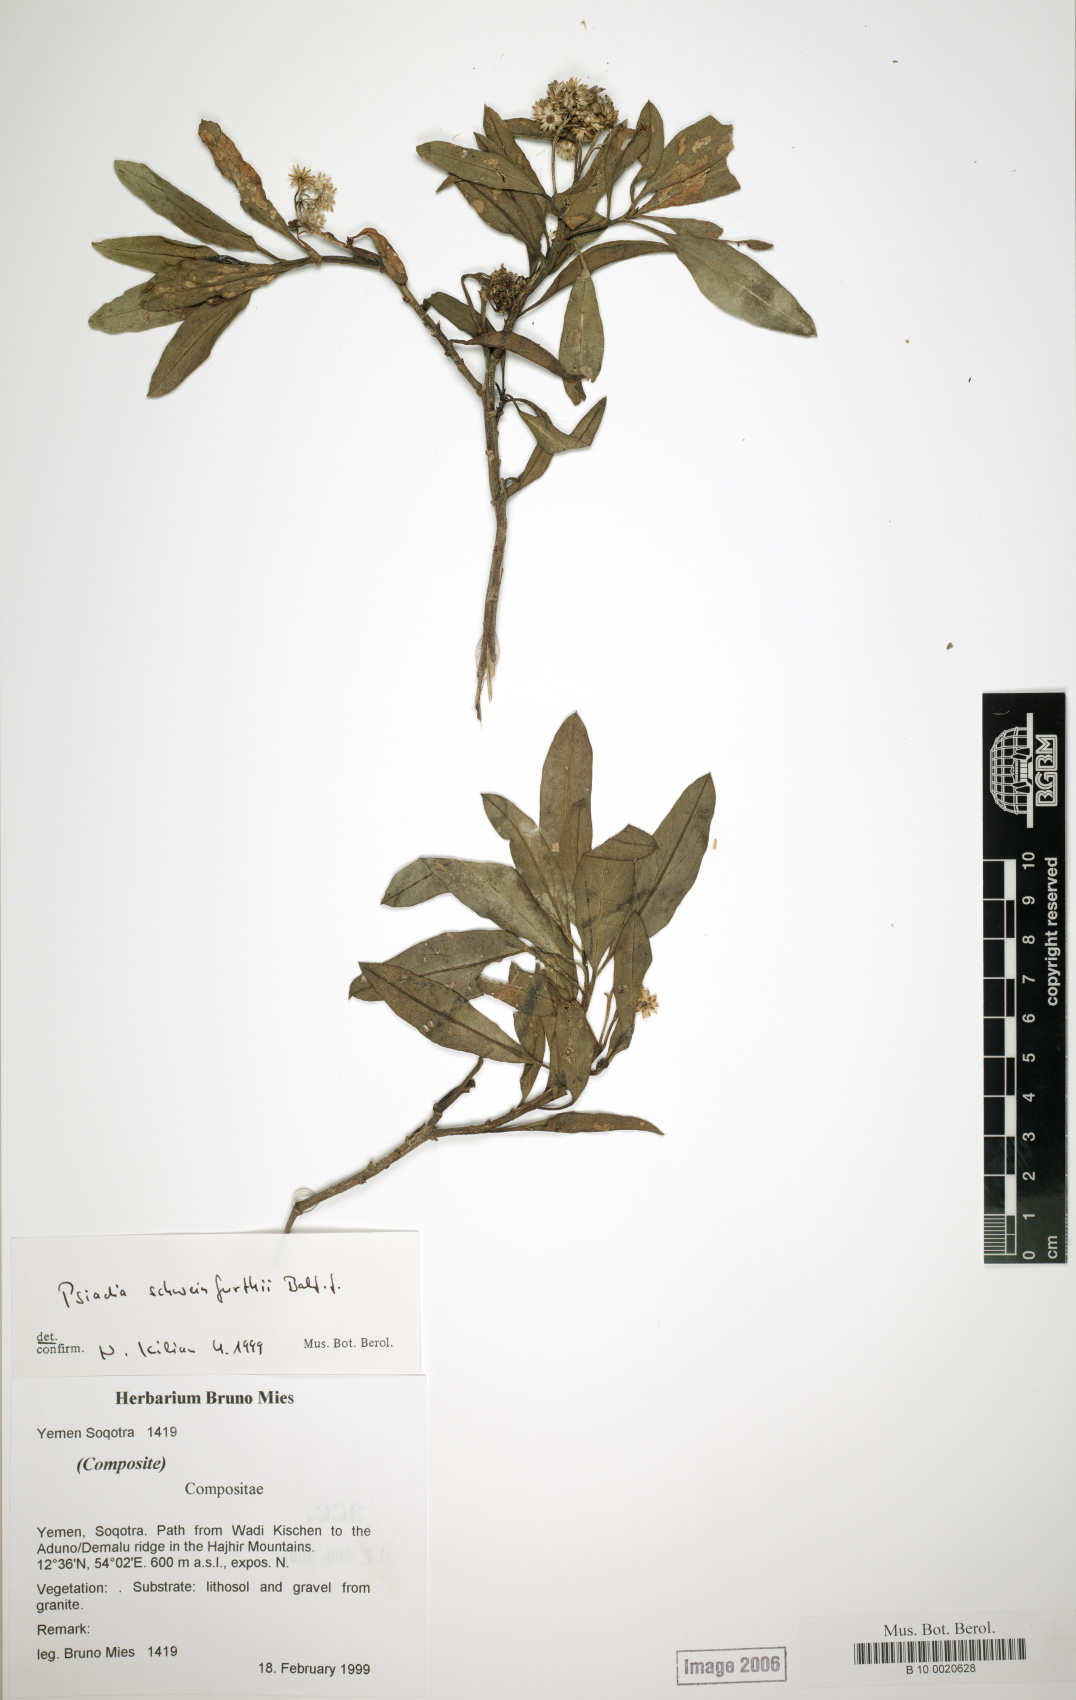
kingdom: Plantae
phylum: Tracheophyta
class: Magnoliopsida
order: Asterales
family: Asteraceae
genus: Psiadia
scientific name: Psiadia schweinfurthii
